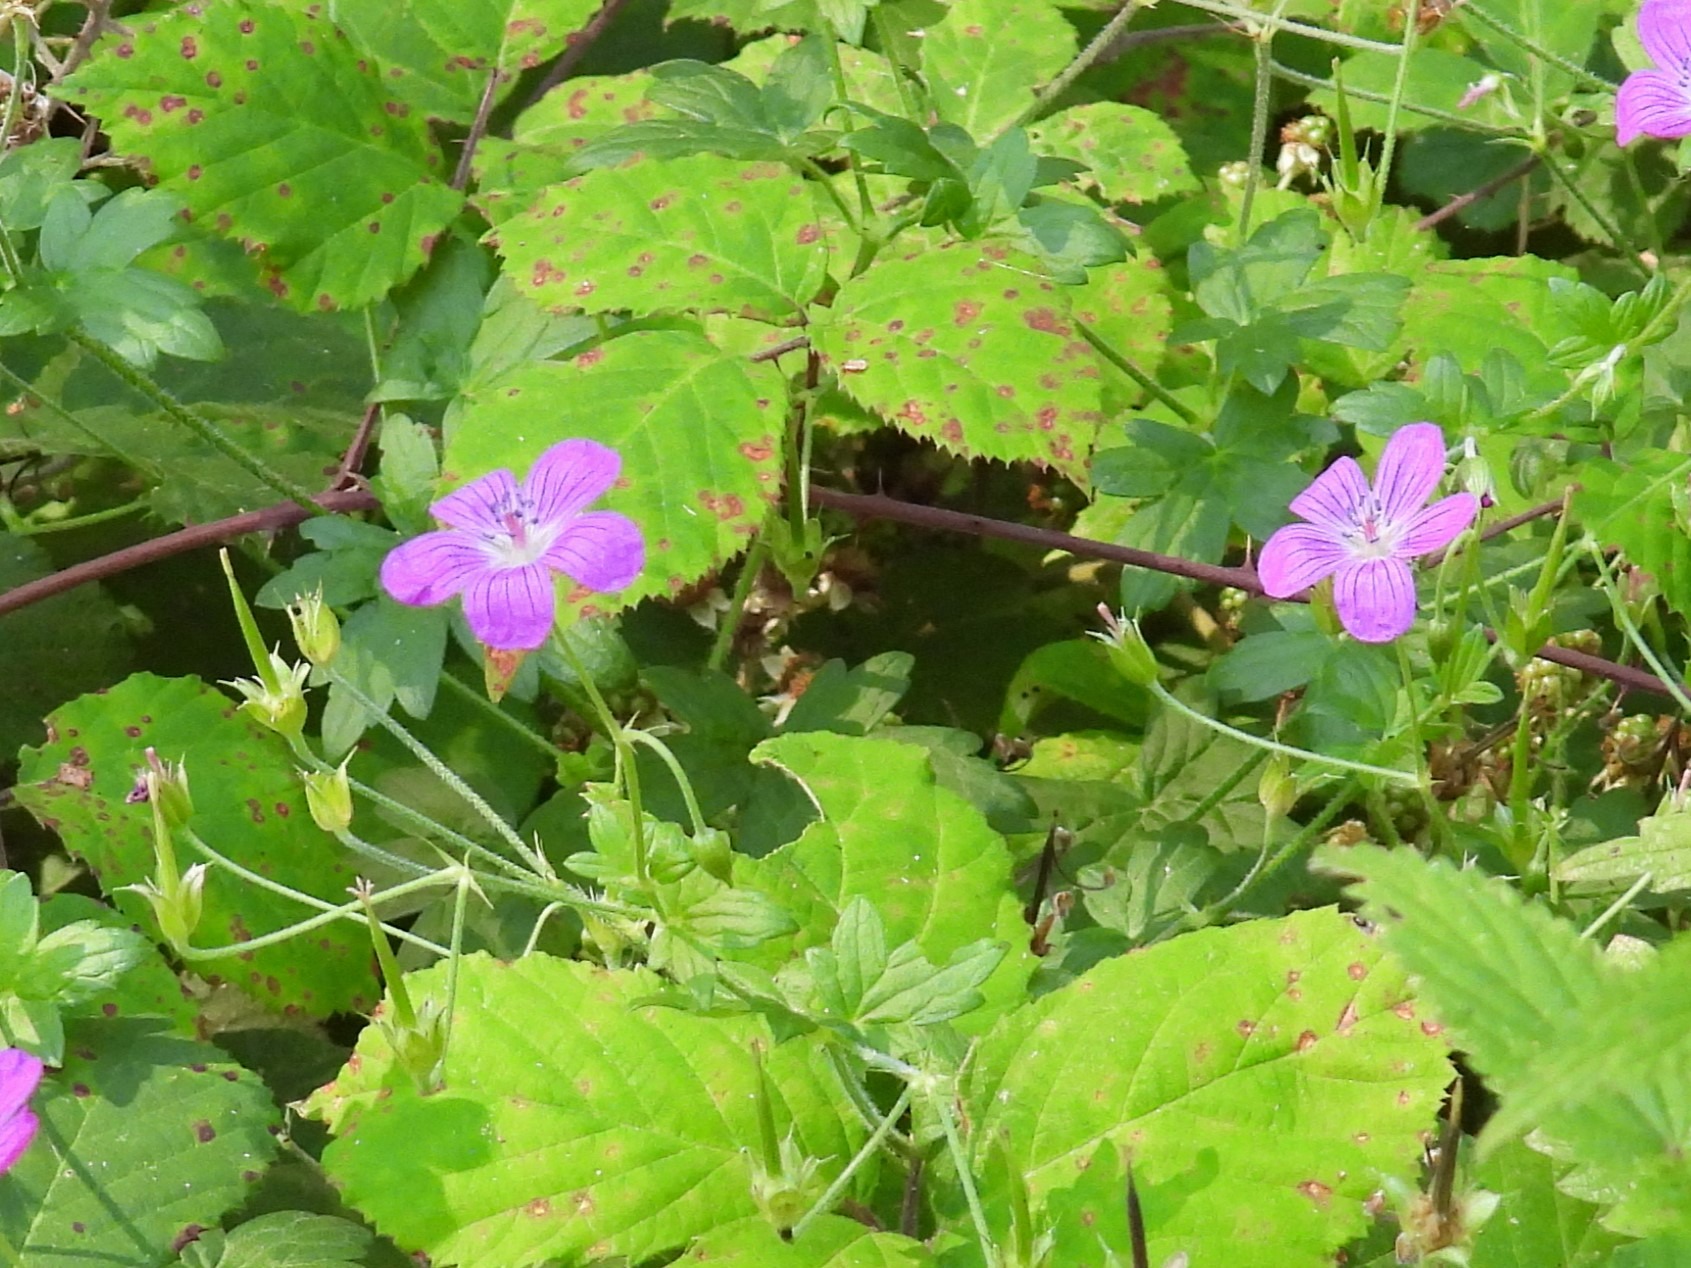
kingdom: Plantae
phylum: Tracheophyta
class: Magnoliopsida
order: Geraniales
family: Geraniaceae
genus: Geranium
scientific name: Geranium palustre
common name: Kær-storkenæb
